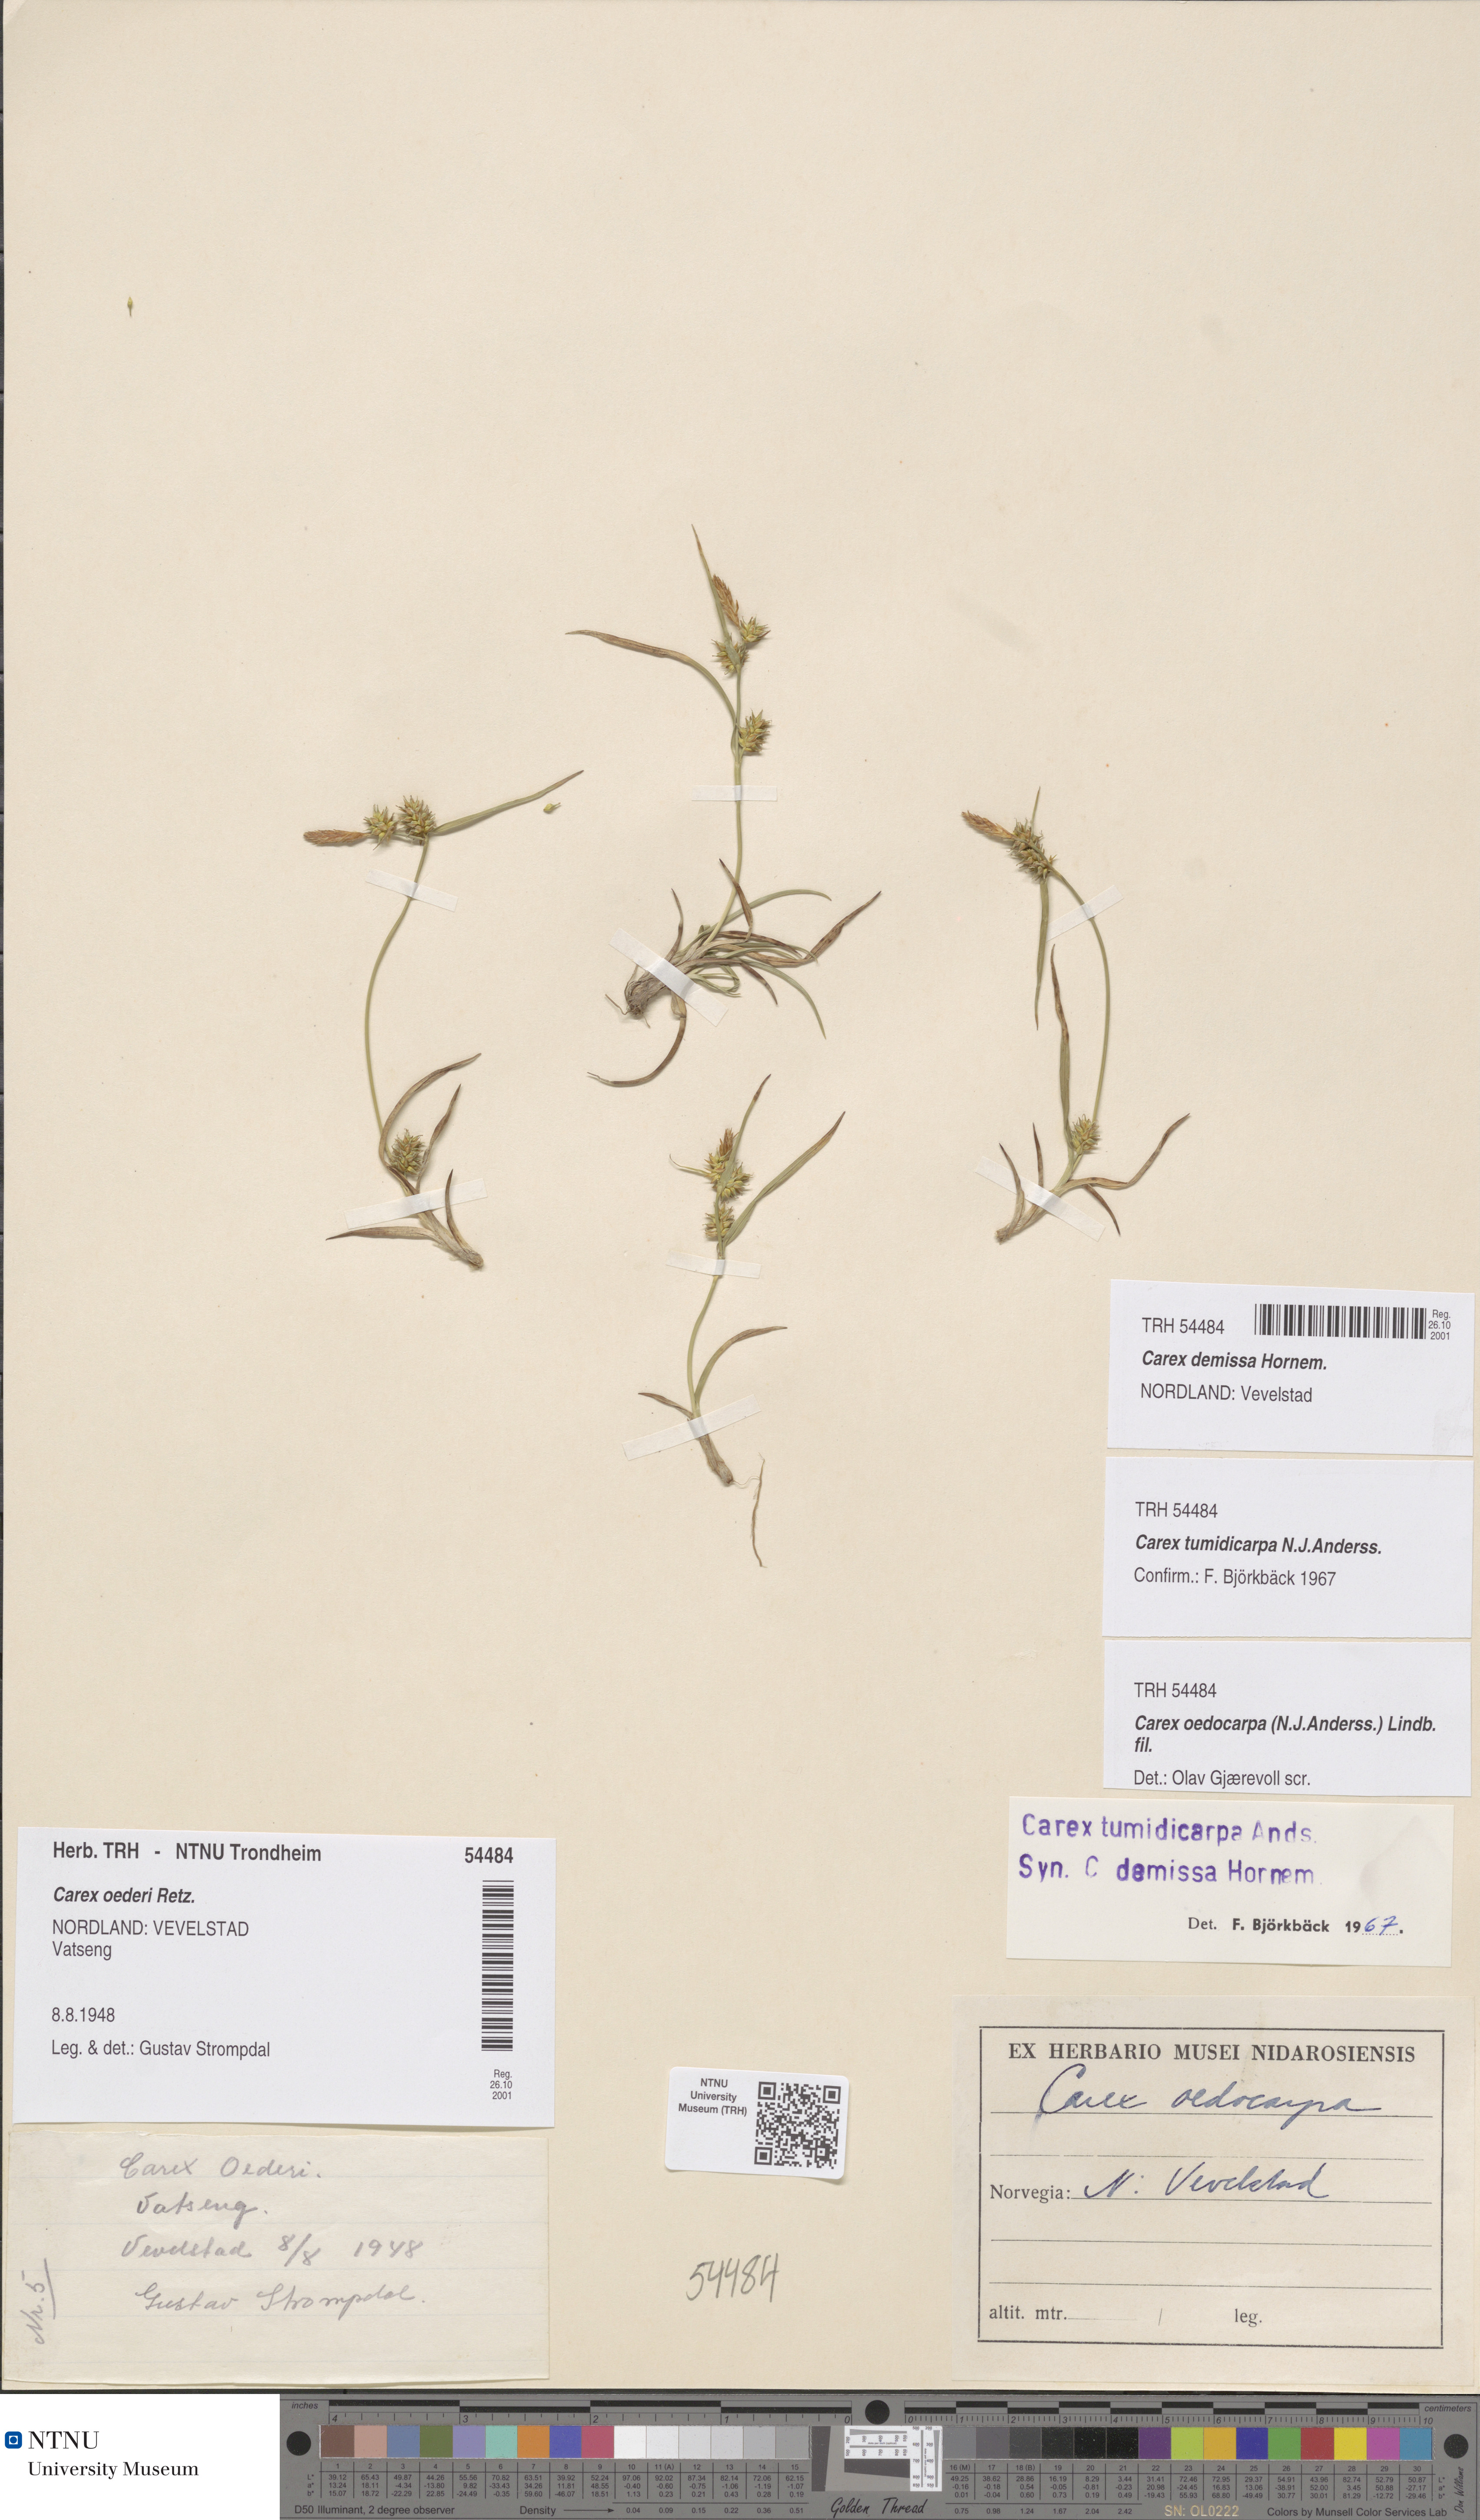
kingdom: Plantae
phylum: Tracheophyta
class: Liliopsida
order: Poales
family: Cyperaceae
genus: Carex
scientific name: Carex demissa
